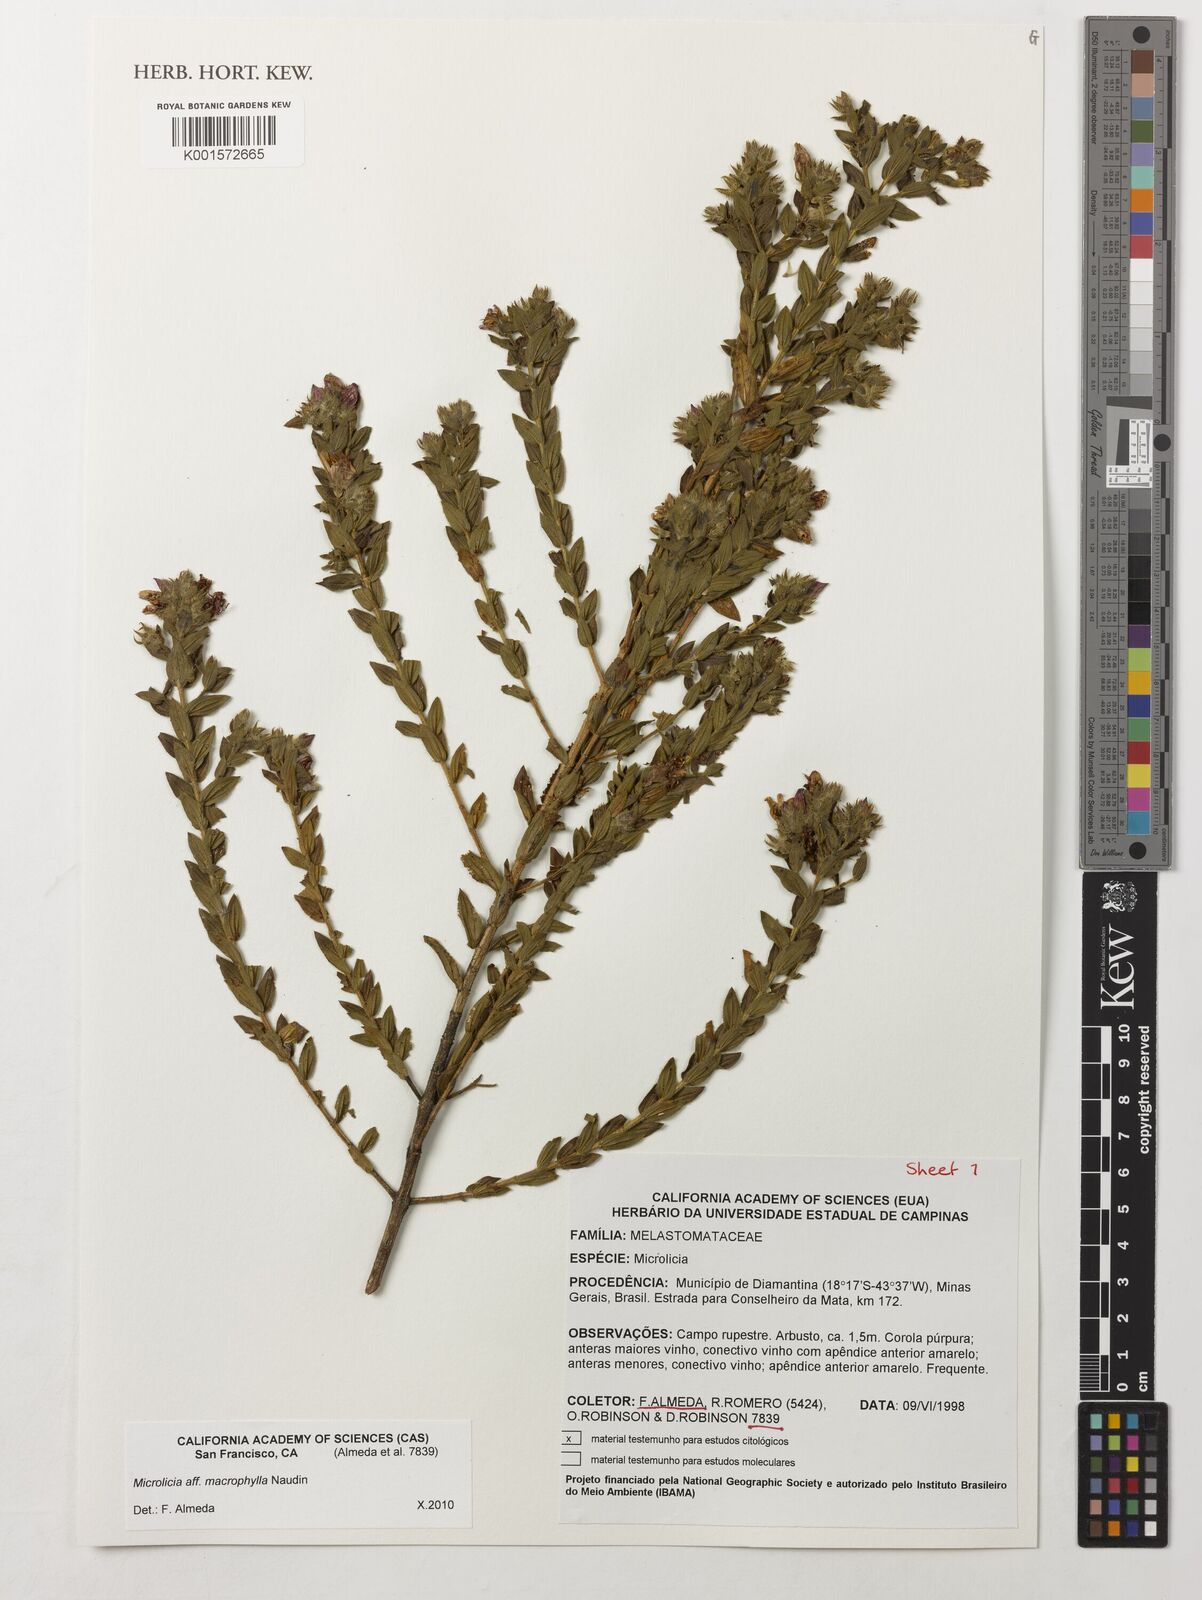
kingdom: Plantae
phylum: Tracheophyta
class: Magnoliopsida
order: Myrtales
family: Melastomataceae
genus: Microlicia
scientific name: Microlicia macrophylla
